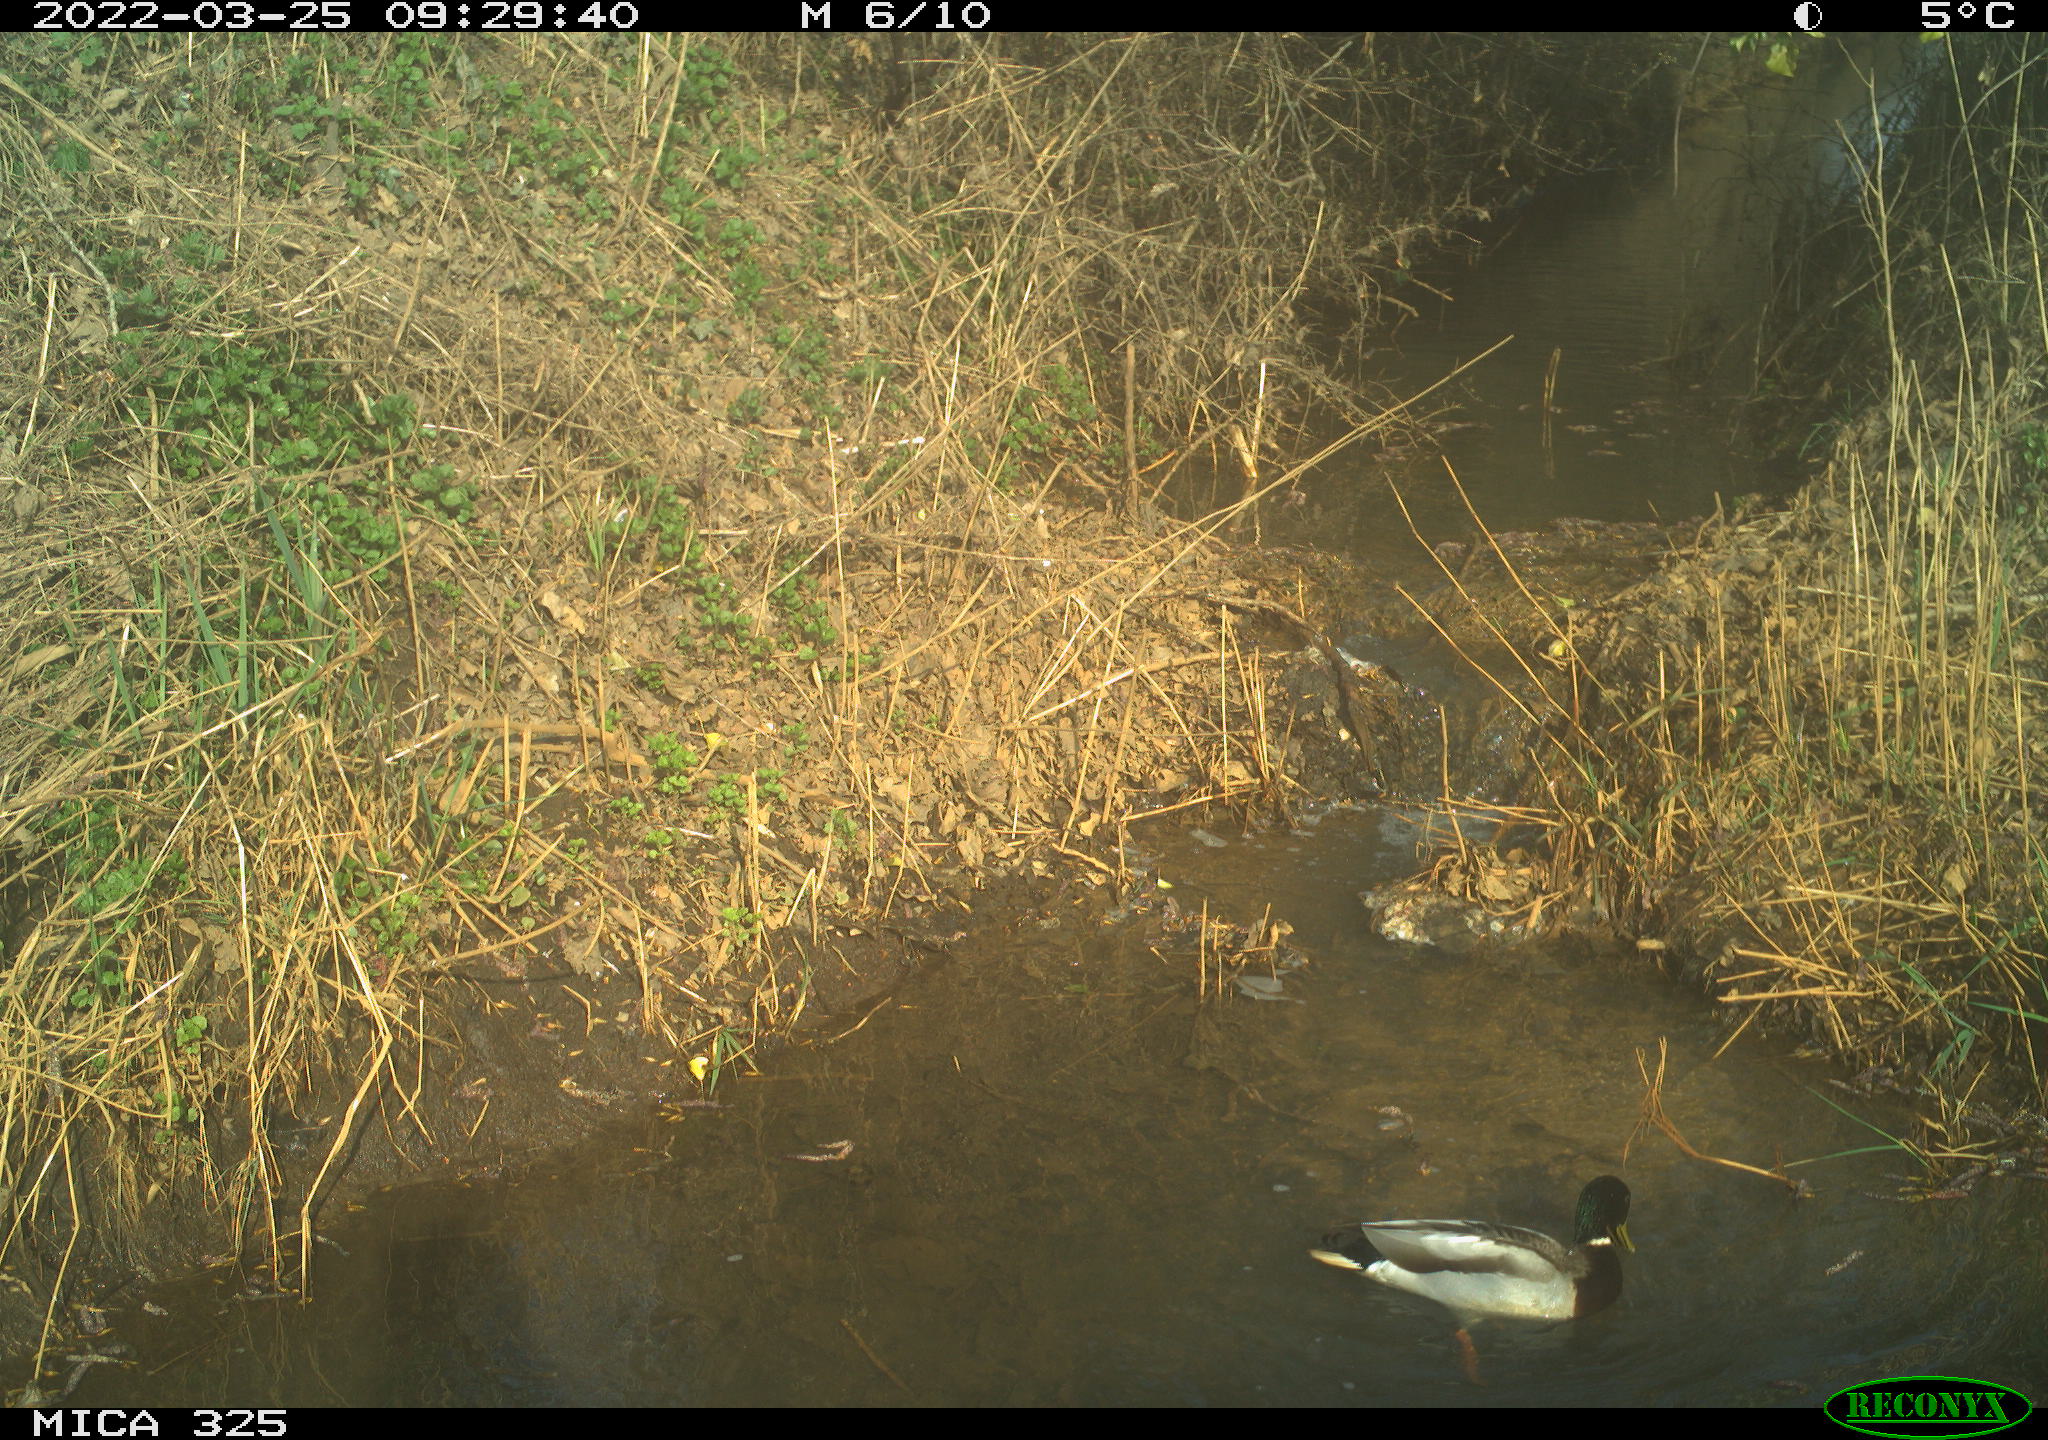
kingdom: Animalia
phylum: Chordata
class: Aves
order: Anseriformes
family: Anatidae
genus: Anas
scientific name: Anas platyrhynchos
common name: Mallard
